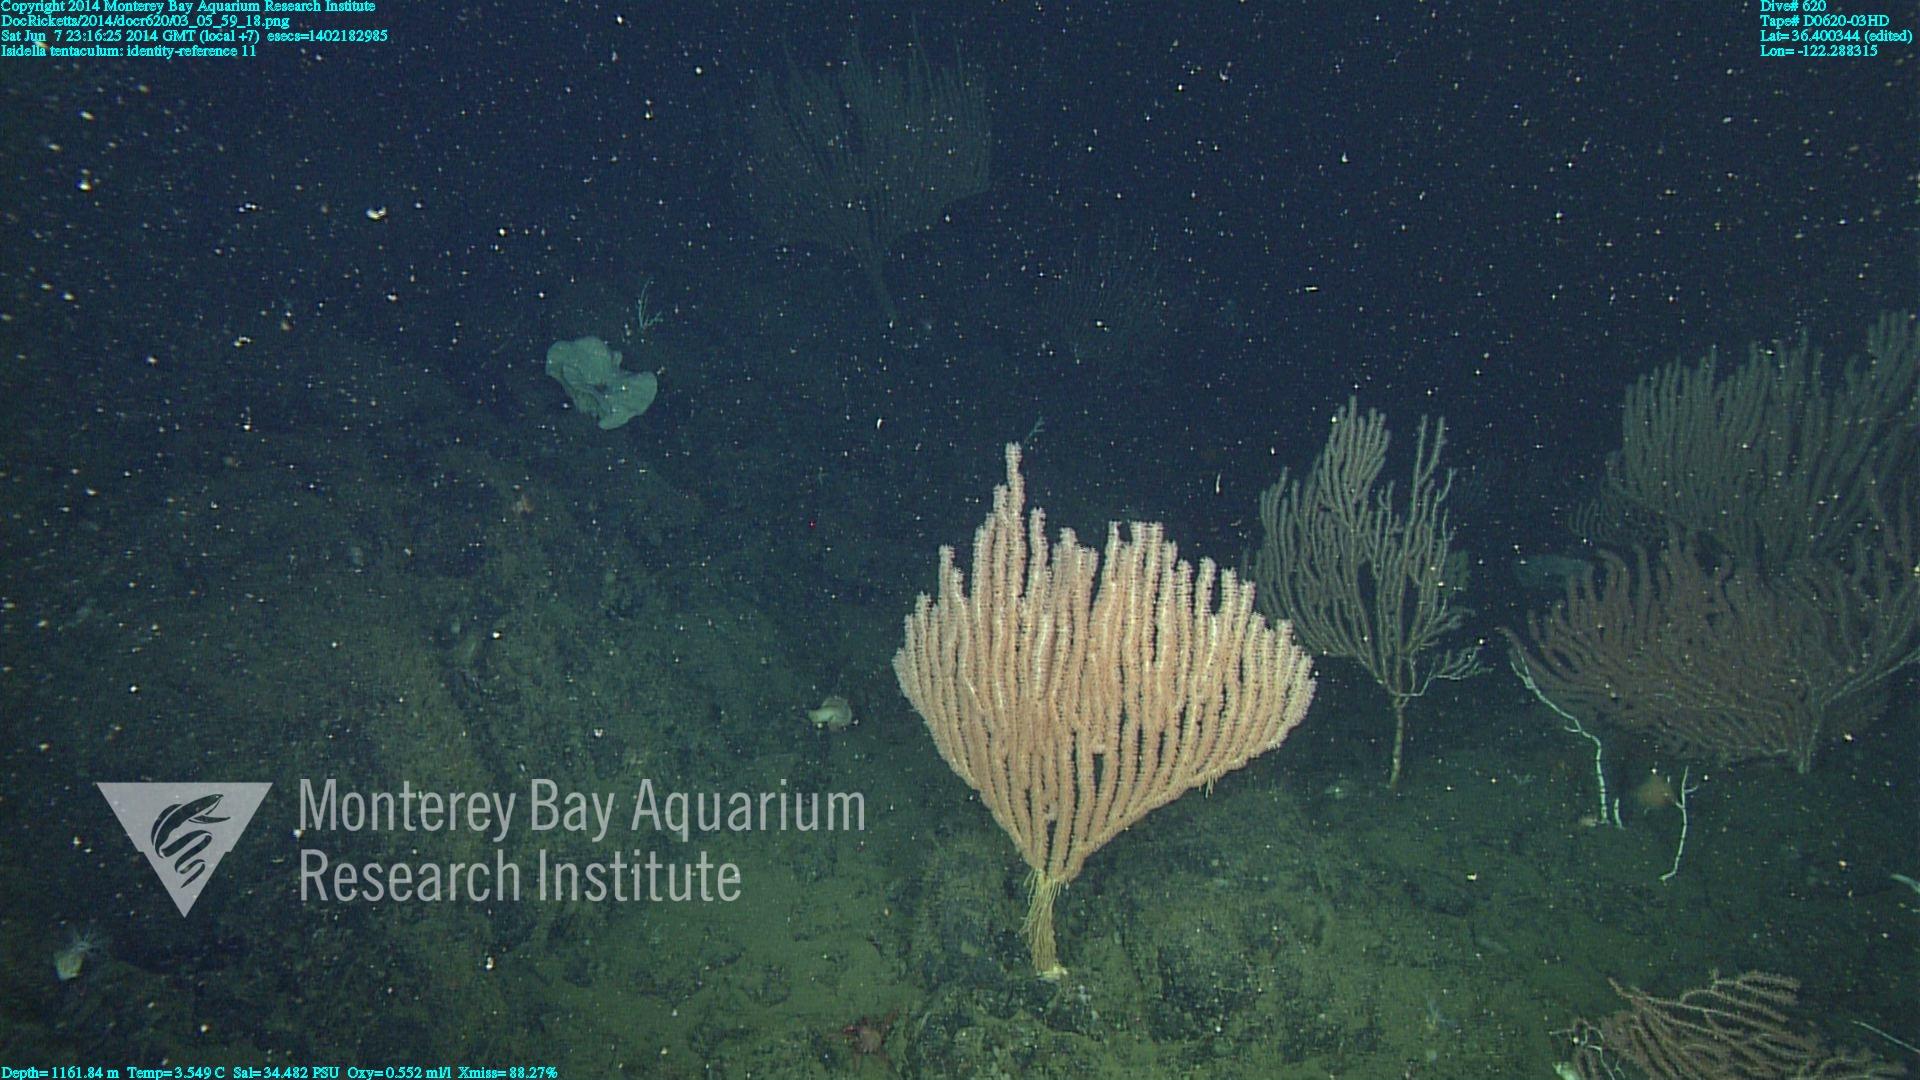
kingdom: Animalia
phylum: Cnidaria
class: Anthozoa
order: Scleralcyonacea
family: Keratoisididae
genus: Isidella
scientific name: Isidella tentaculum
